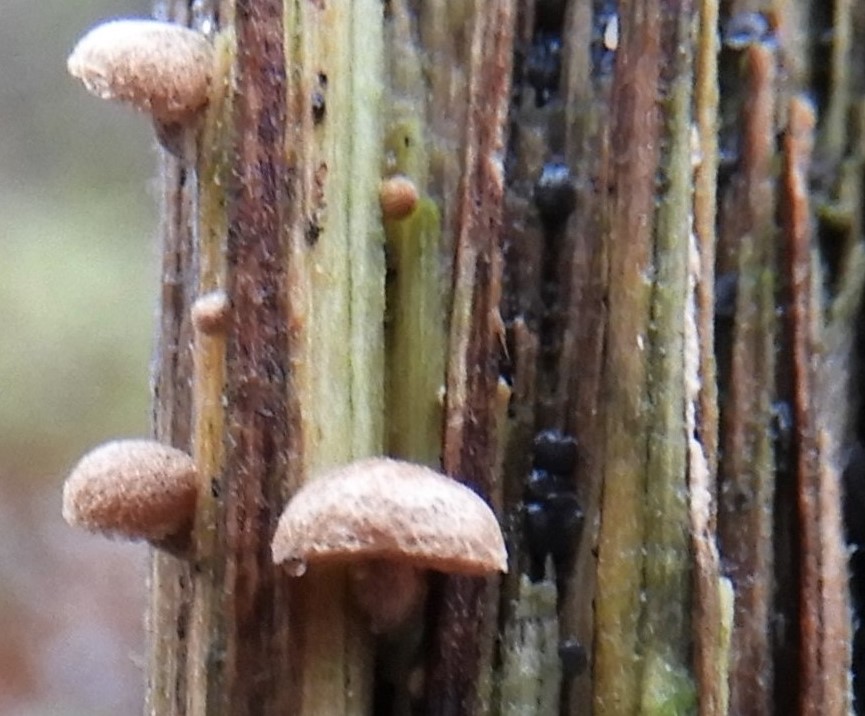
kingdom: Fungi
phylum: Basidiomycota
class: Agaricomycetes
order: Agaricales
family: Strophariaceae
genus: Deconica
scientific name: Deconica horizontalis
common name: ved-stråhat
